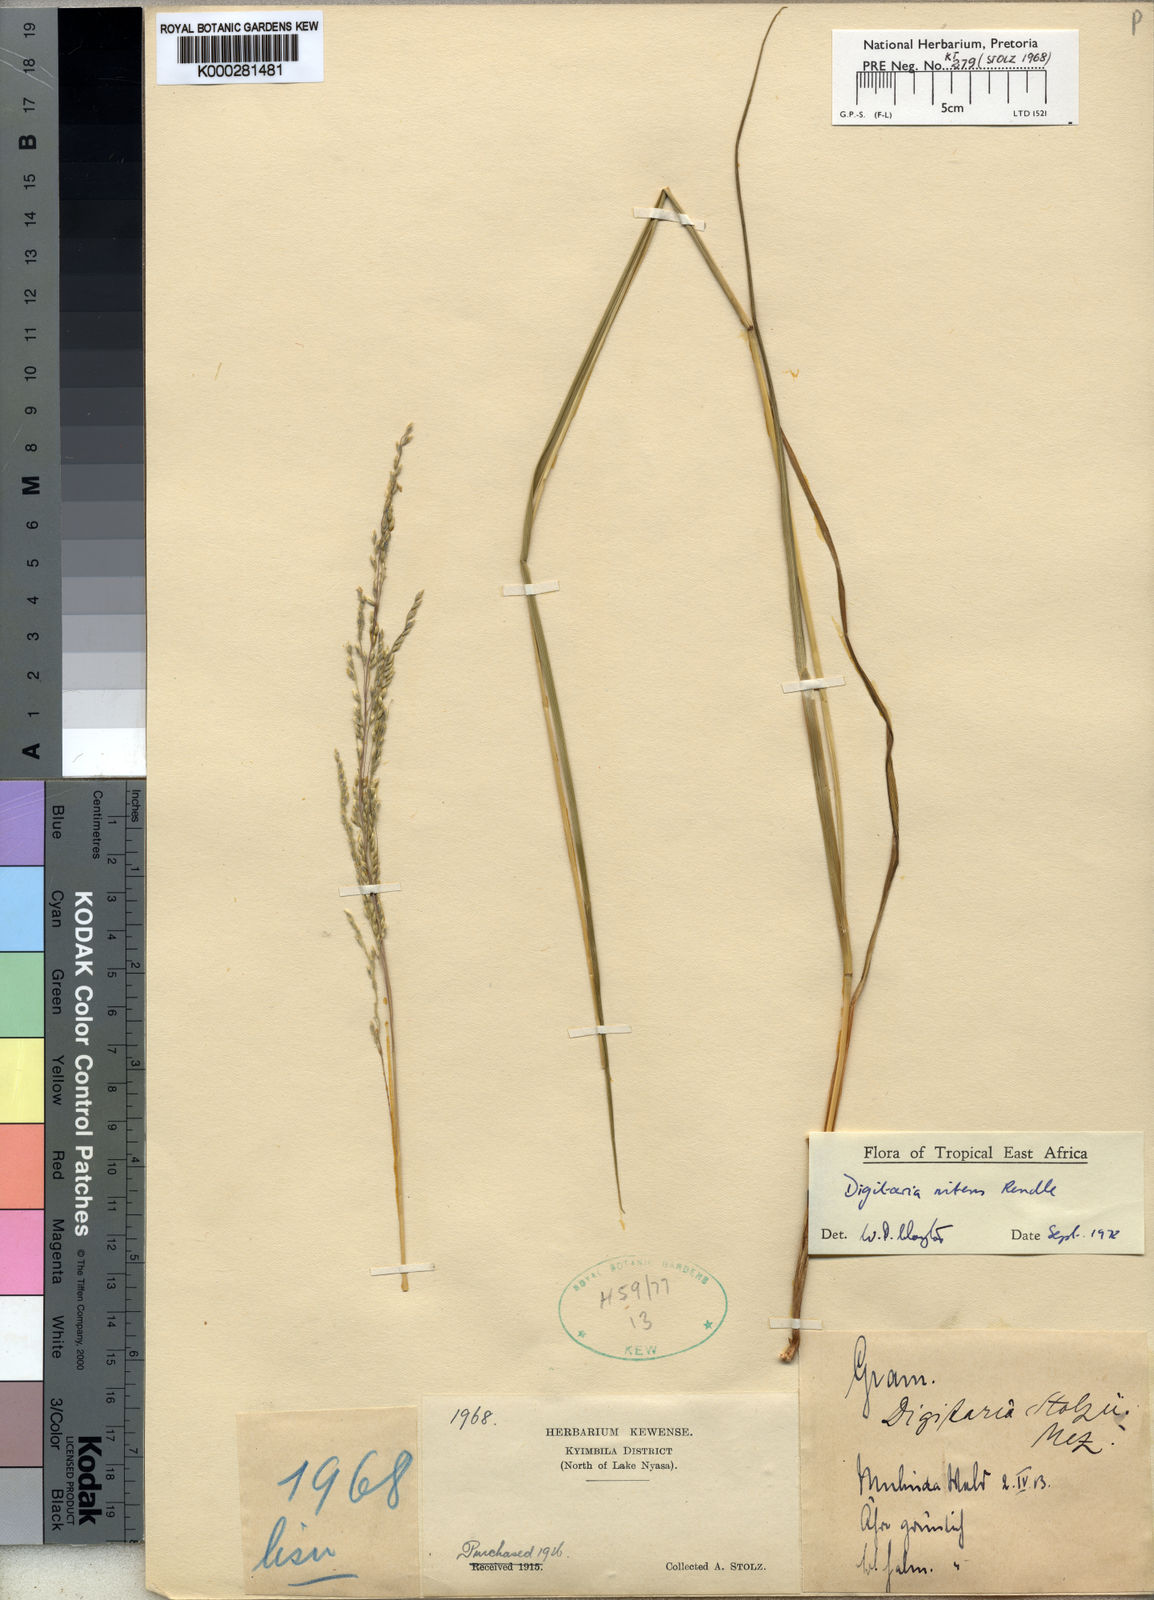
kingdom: Plantae
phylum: Tracheophyta
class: Liliopsida
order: Poales
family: Poaceae
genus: Digitaria
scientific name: Digitaria flaccida
